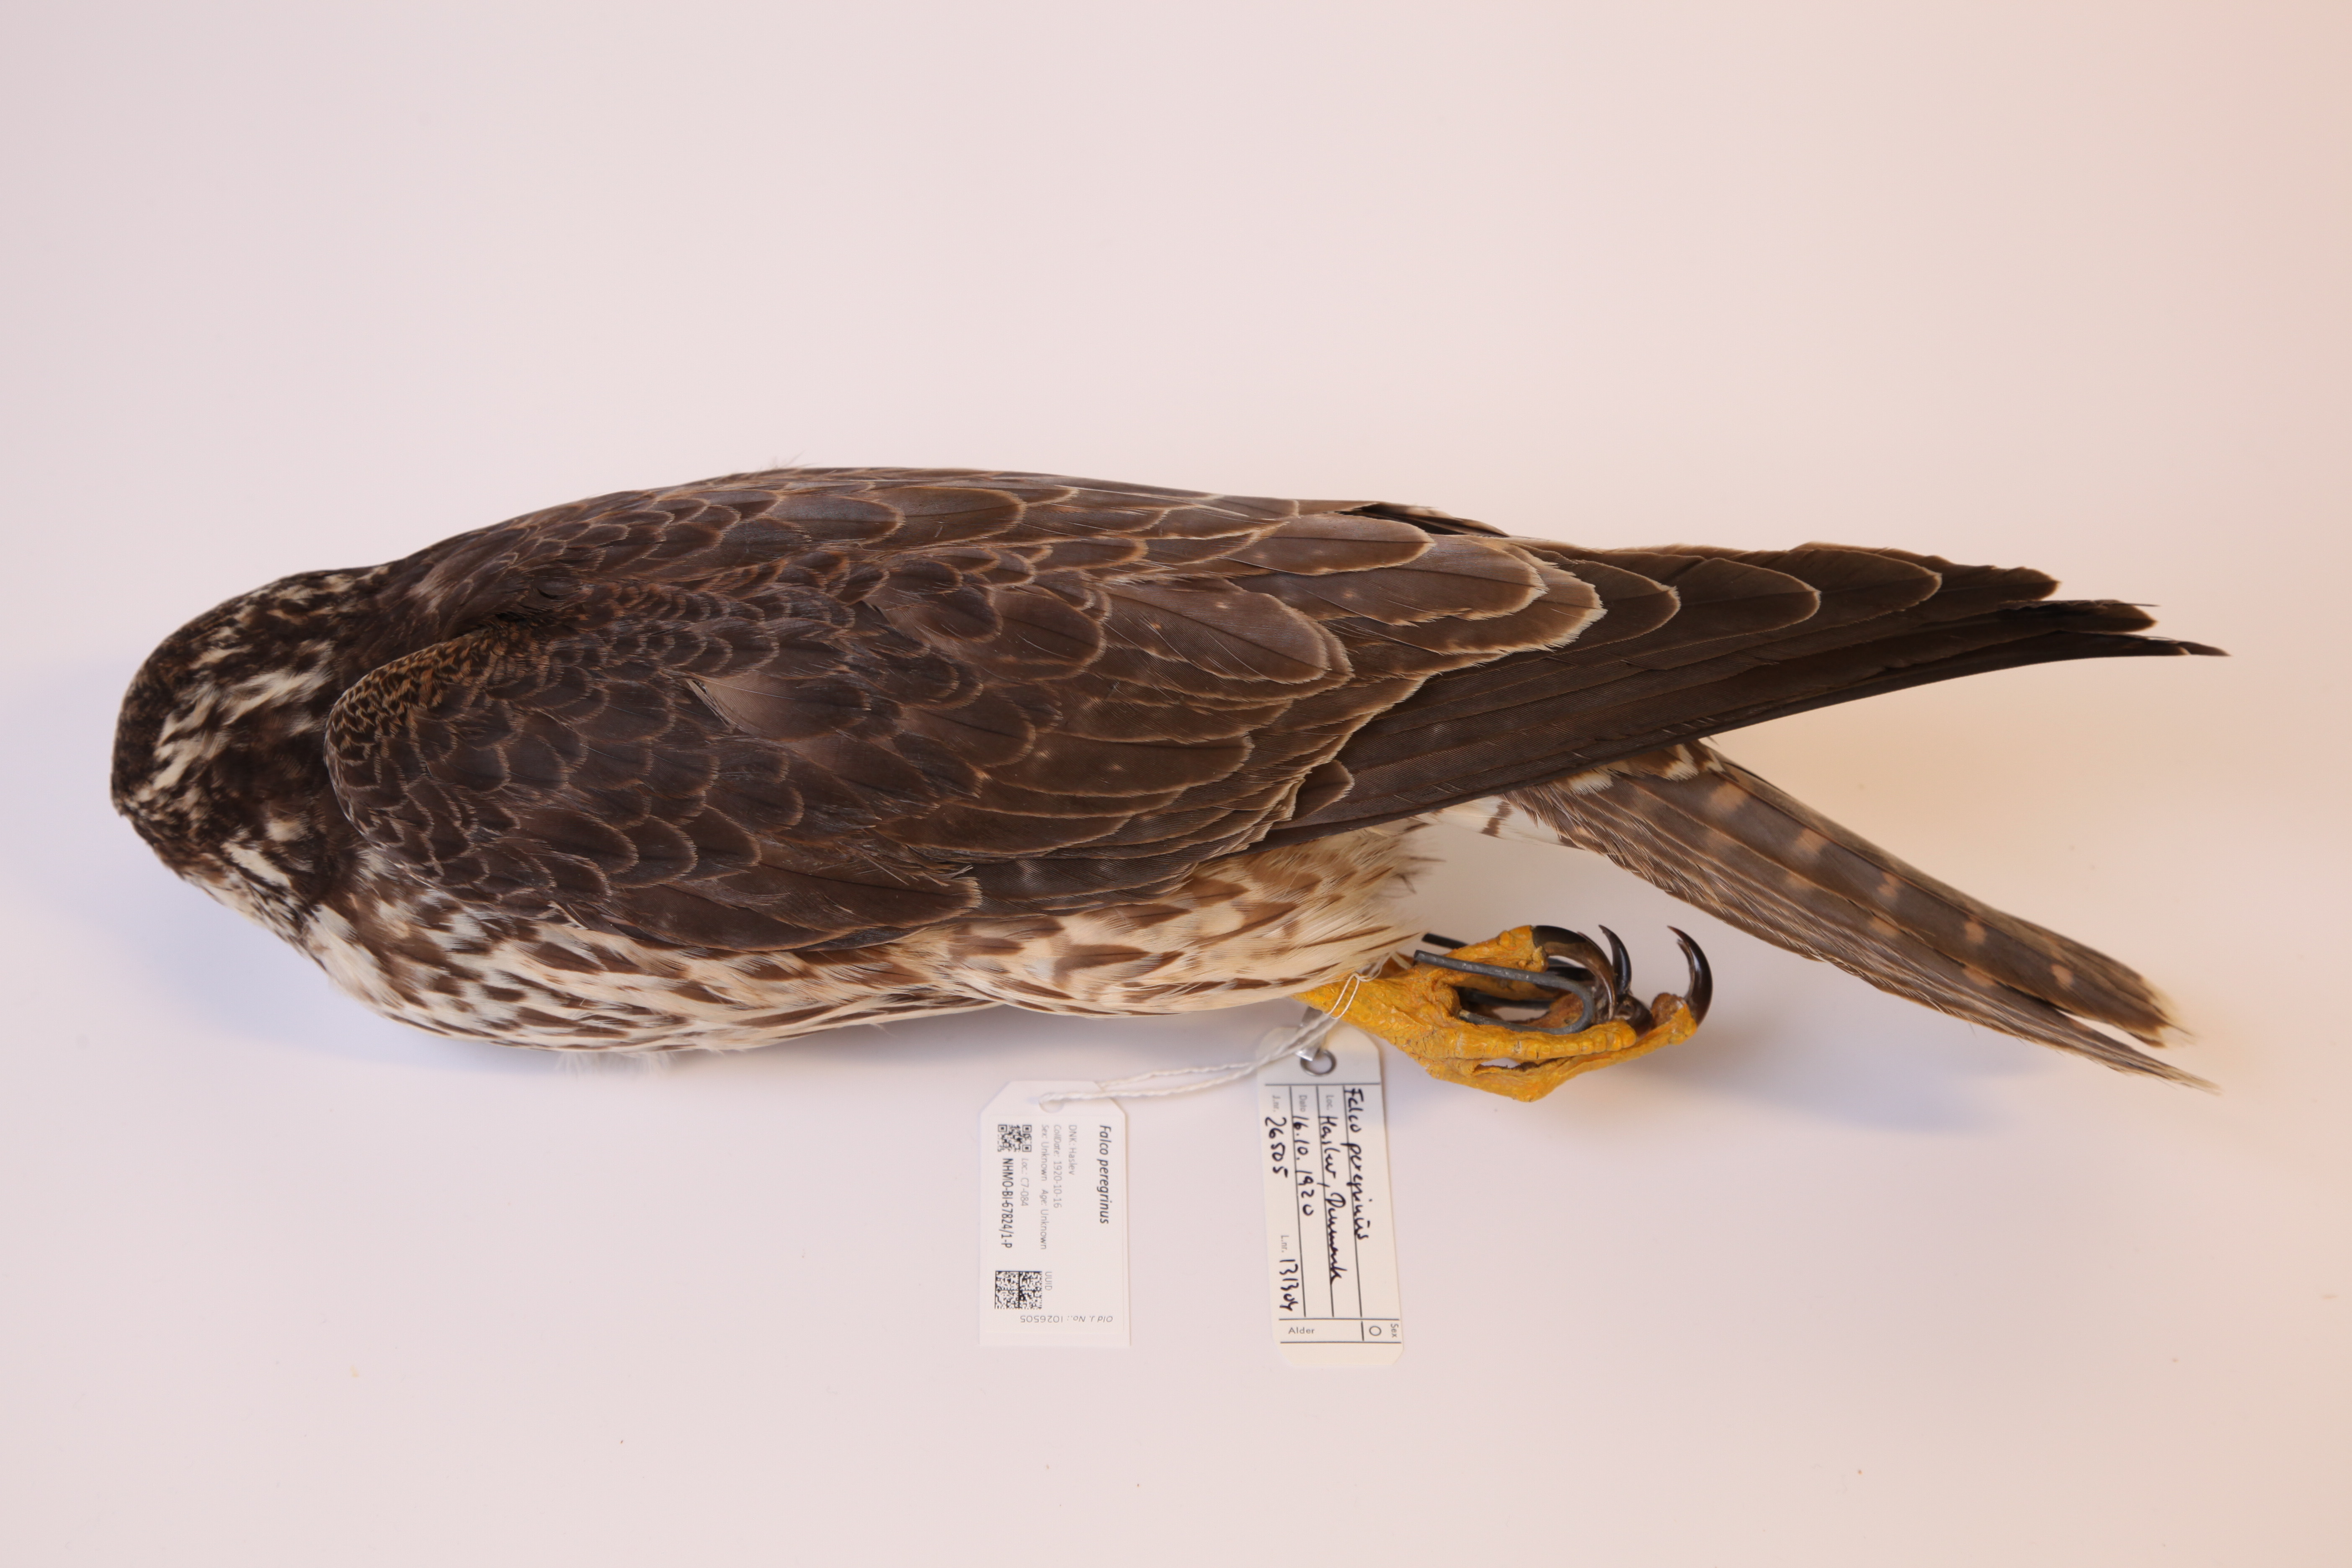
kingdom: Animalia
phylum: Chordata
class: Aves
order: Falconiformes
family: Falconidae
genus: Falco
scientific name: Falco peregrinus
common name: Peregrine falcon
